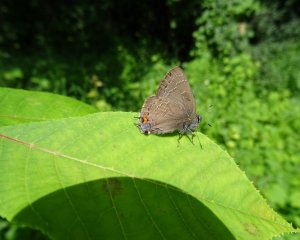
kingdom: Animalia
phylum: Arthropoda
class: Insecta
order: Lepidoptera
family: Lycaenidae
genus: Satyrium
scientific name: Satyrium calanus
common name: Banded Hairstreak
